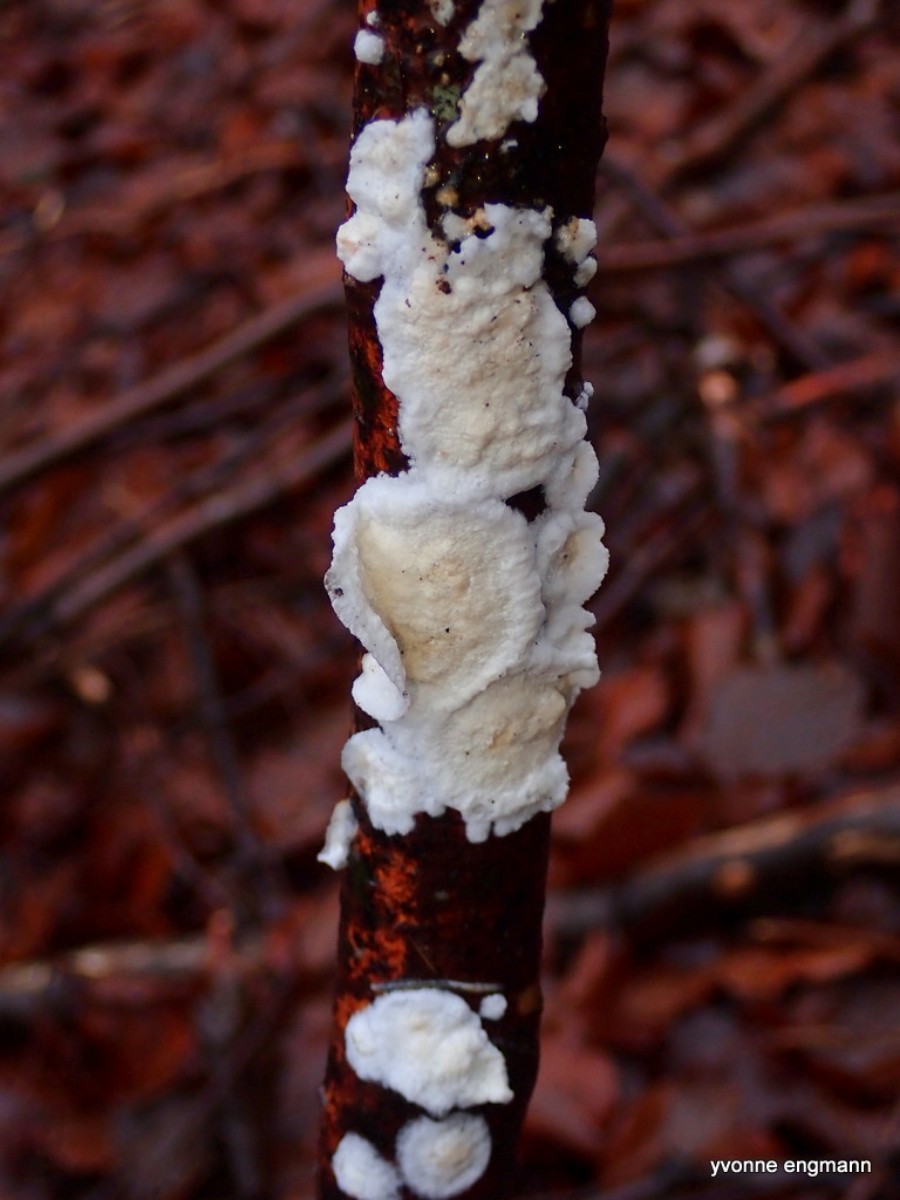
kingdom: Fungi
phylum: Basidiomycota
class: Agaricomycetes
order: Polyporales
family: Irpicaceae
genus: Byssomerulius
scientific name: Byssomerulius corium
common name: læder-åresvamp
